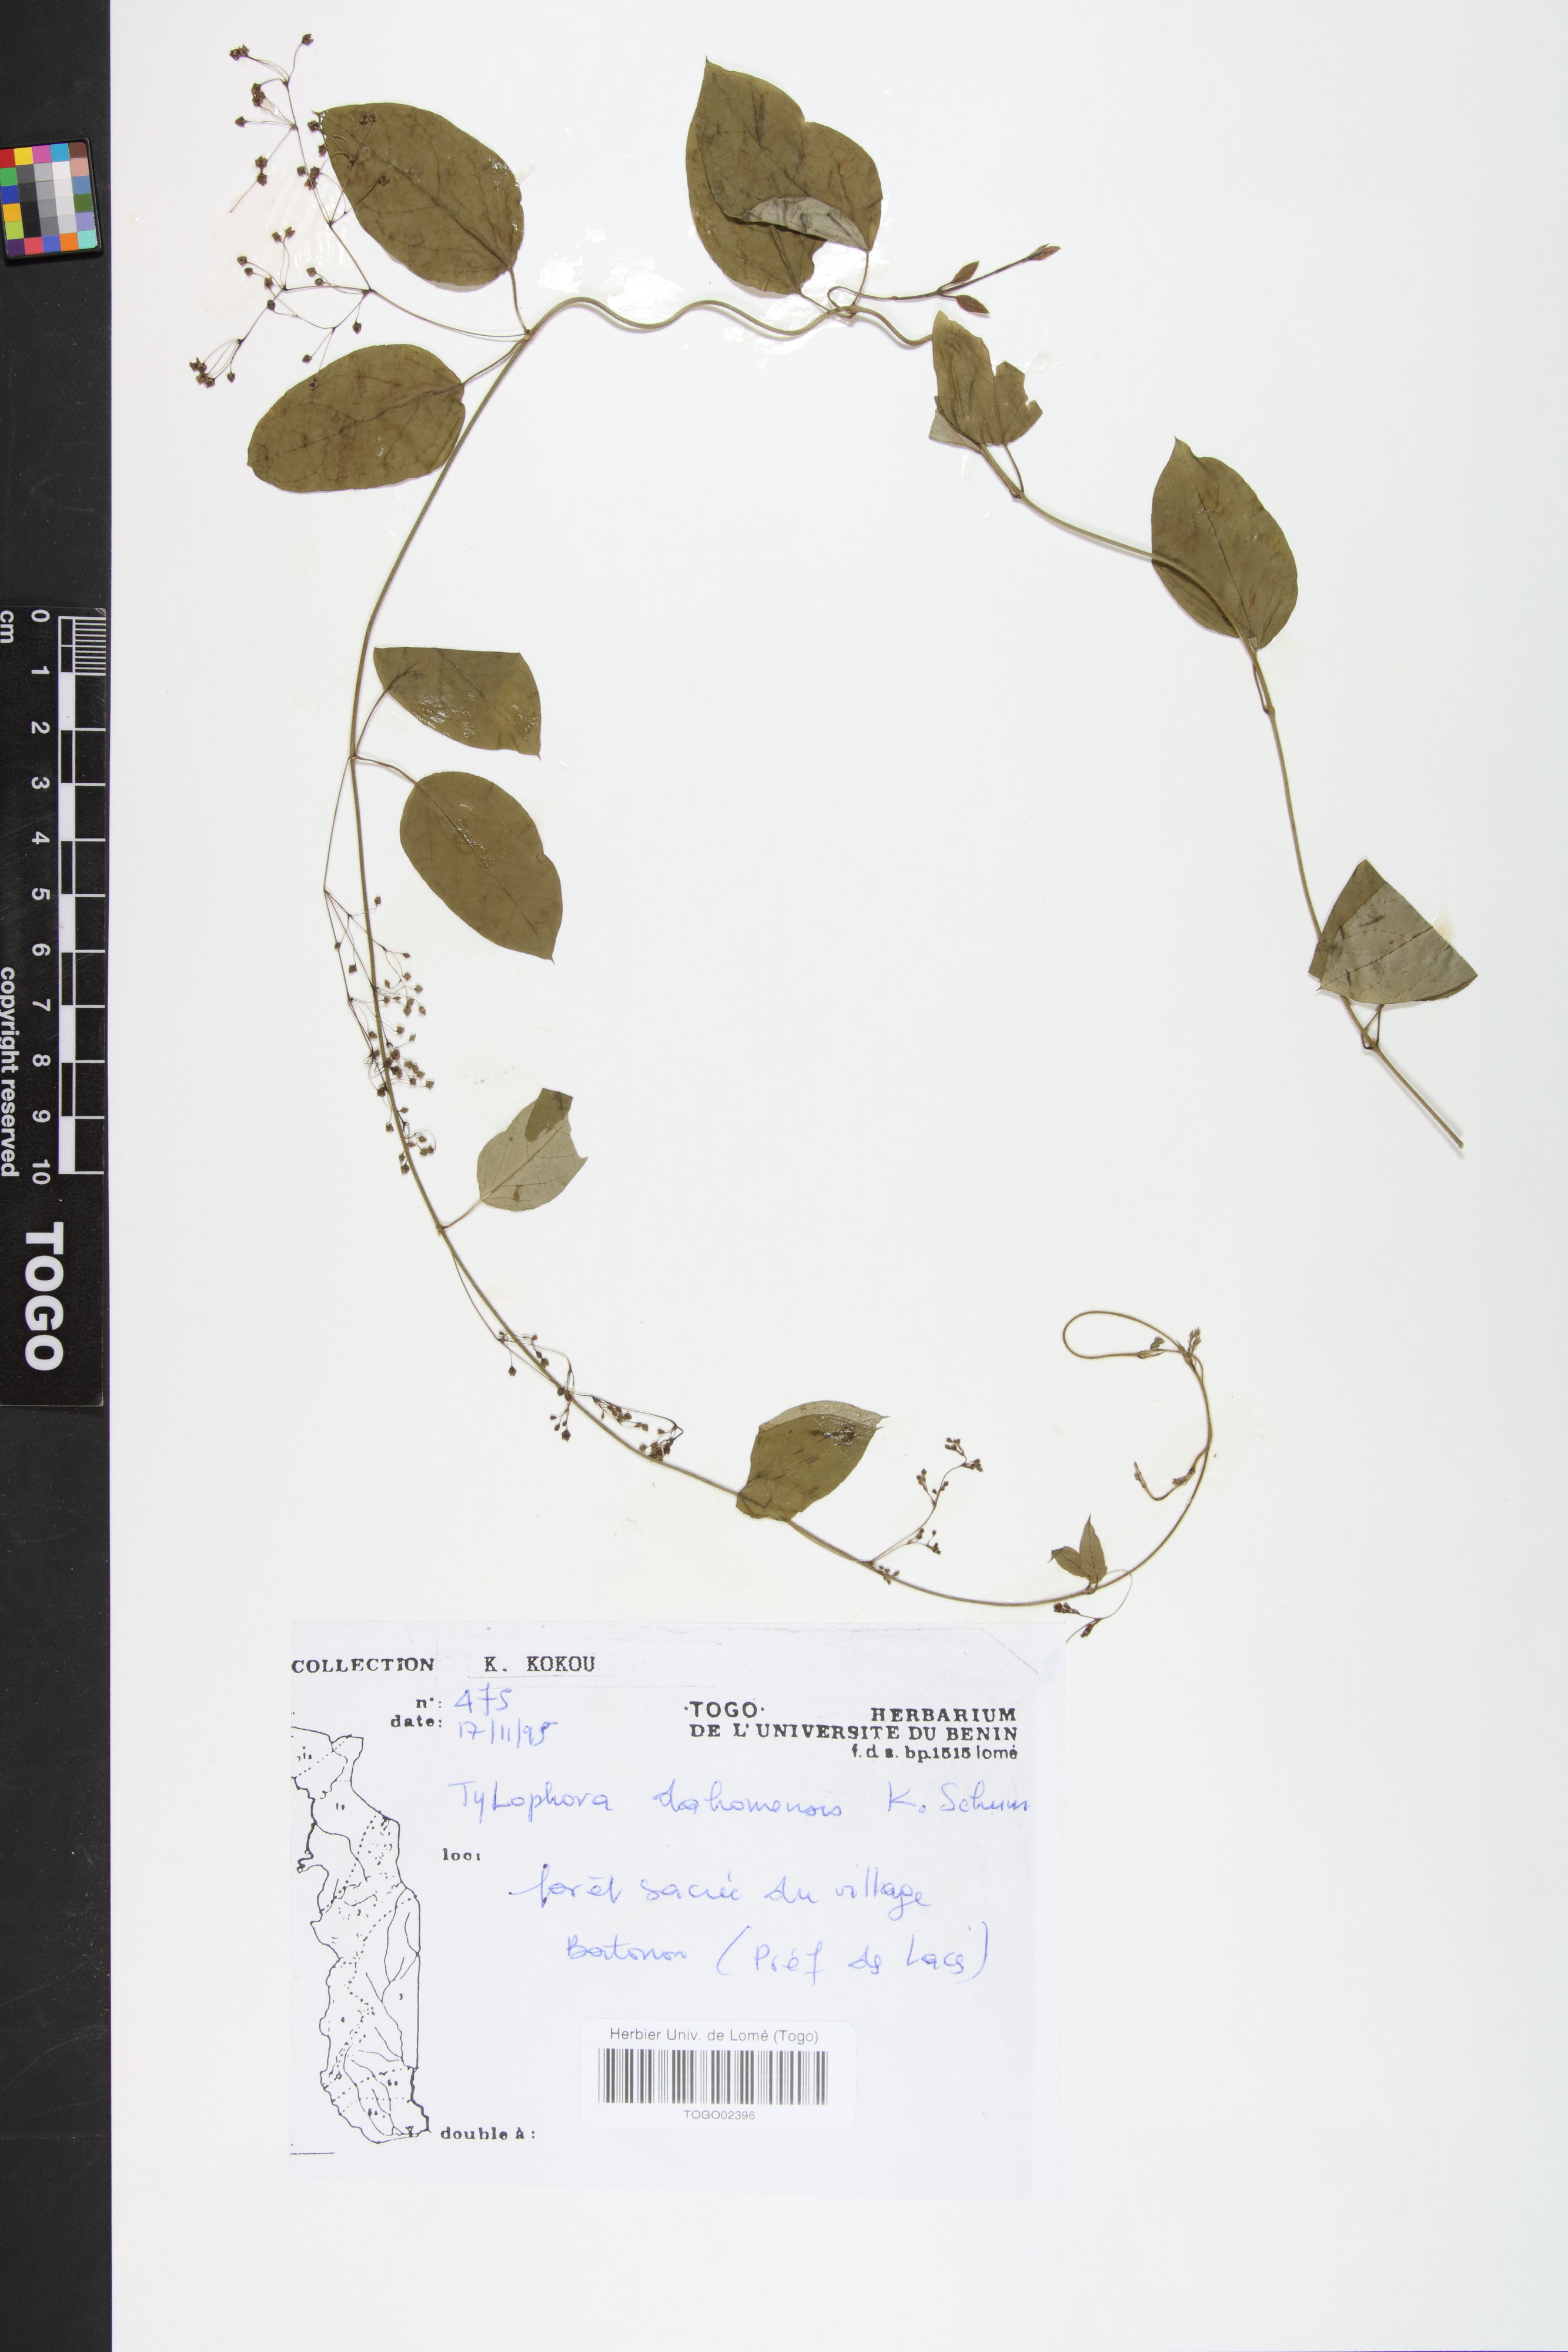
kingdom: Plantae
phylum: Tracheophyta
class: Magnoliopsida
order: Gentianales
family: Apocynaceae
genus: Vincetoxicum
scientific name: Vincetoxicum dahomense
